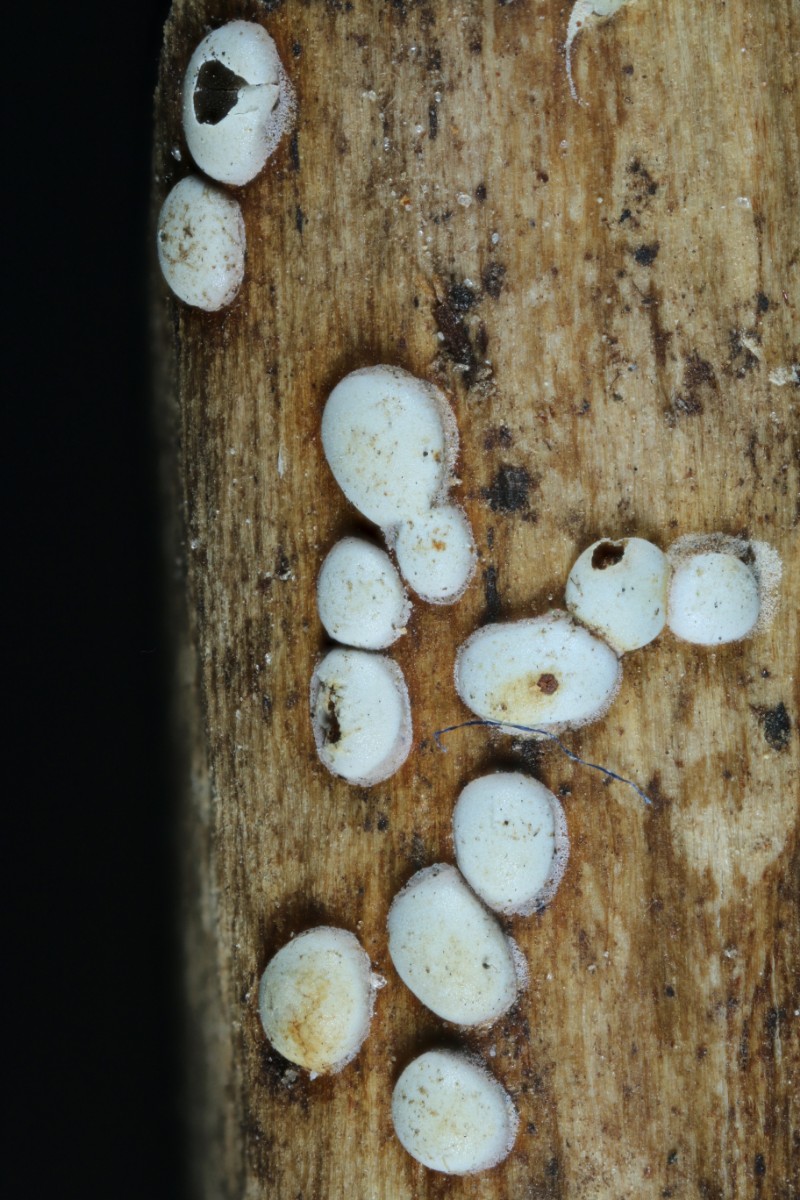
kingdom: Protozoa
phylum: Mycetozoa
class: Myxomycetes
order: Physarales
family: Didymiaceae
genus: Didymium
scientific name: Didymium difforme
